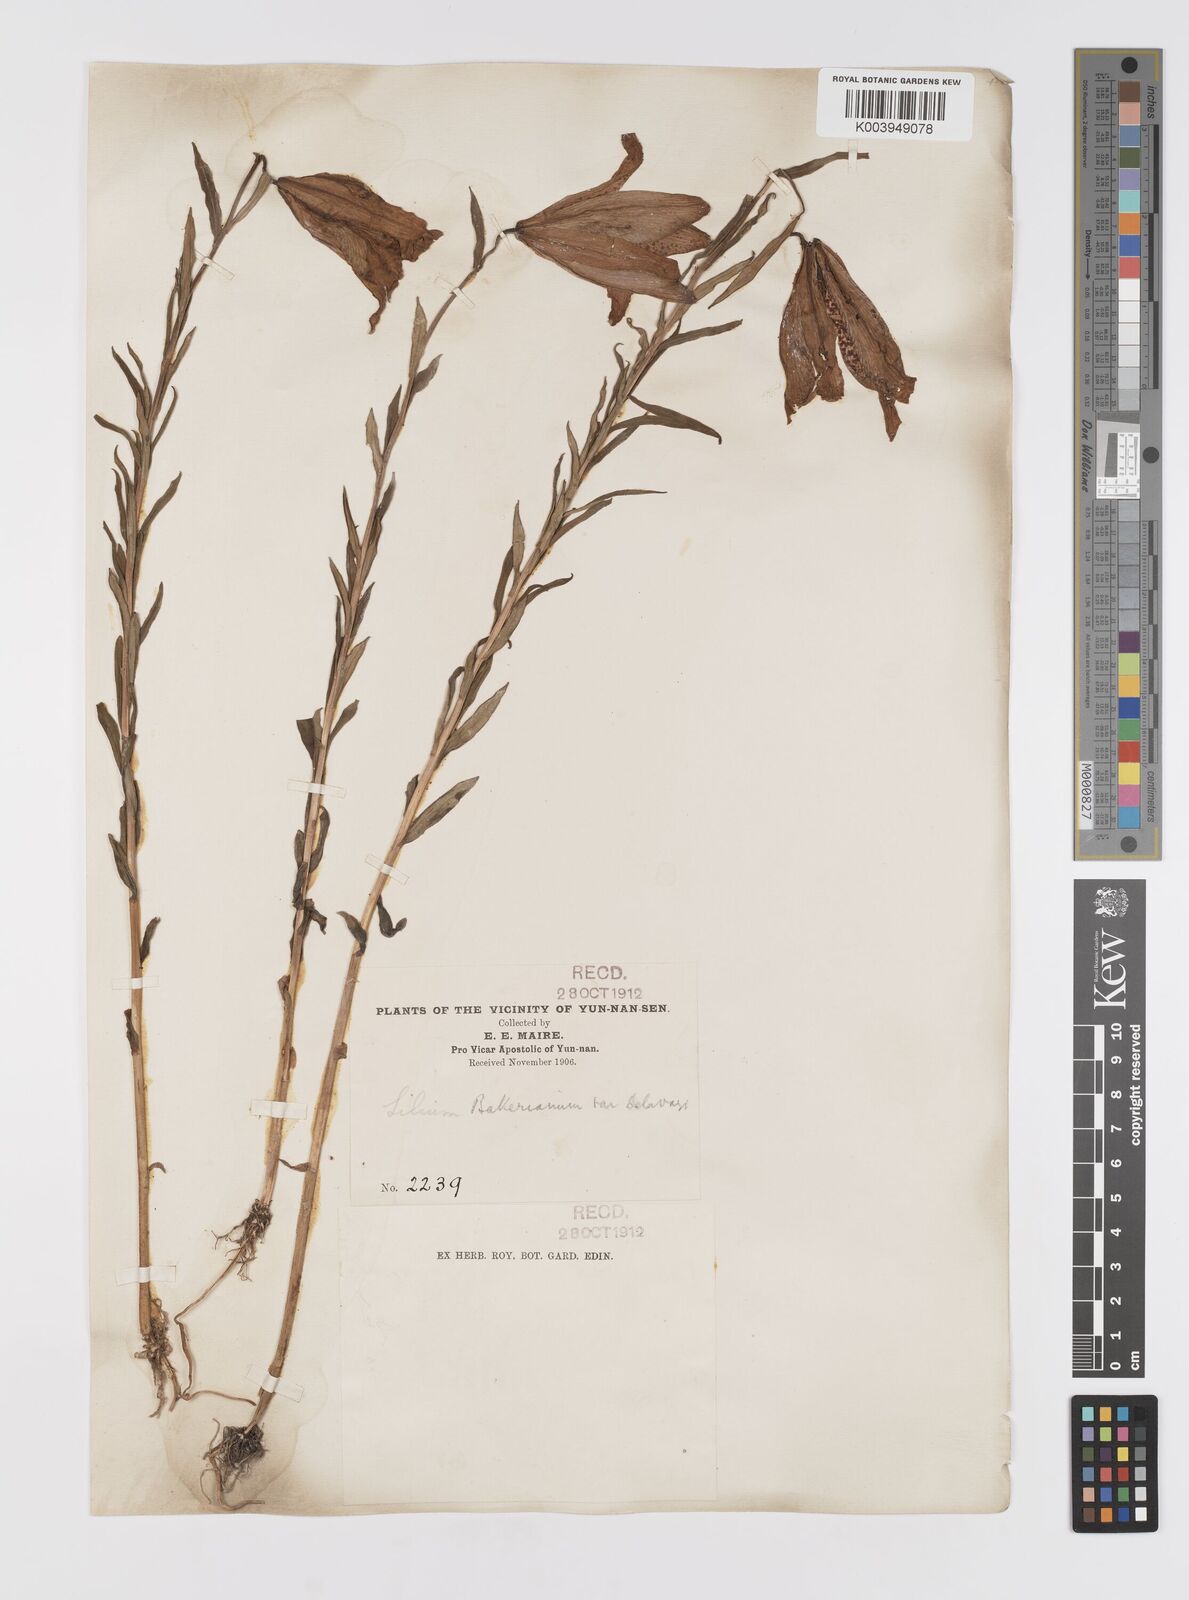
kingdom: Plantae
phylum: Tracheophyta
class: Liliopsida
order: Liliales
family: Liliaceae
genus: Lilium
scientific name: Lilium bakerianum
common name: Baker's lily
